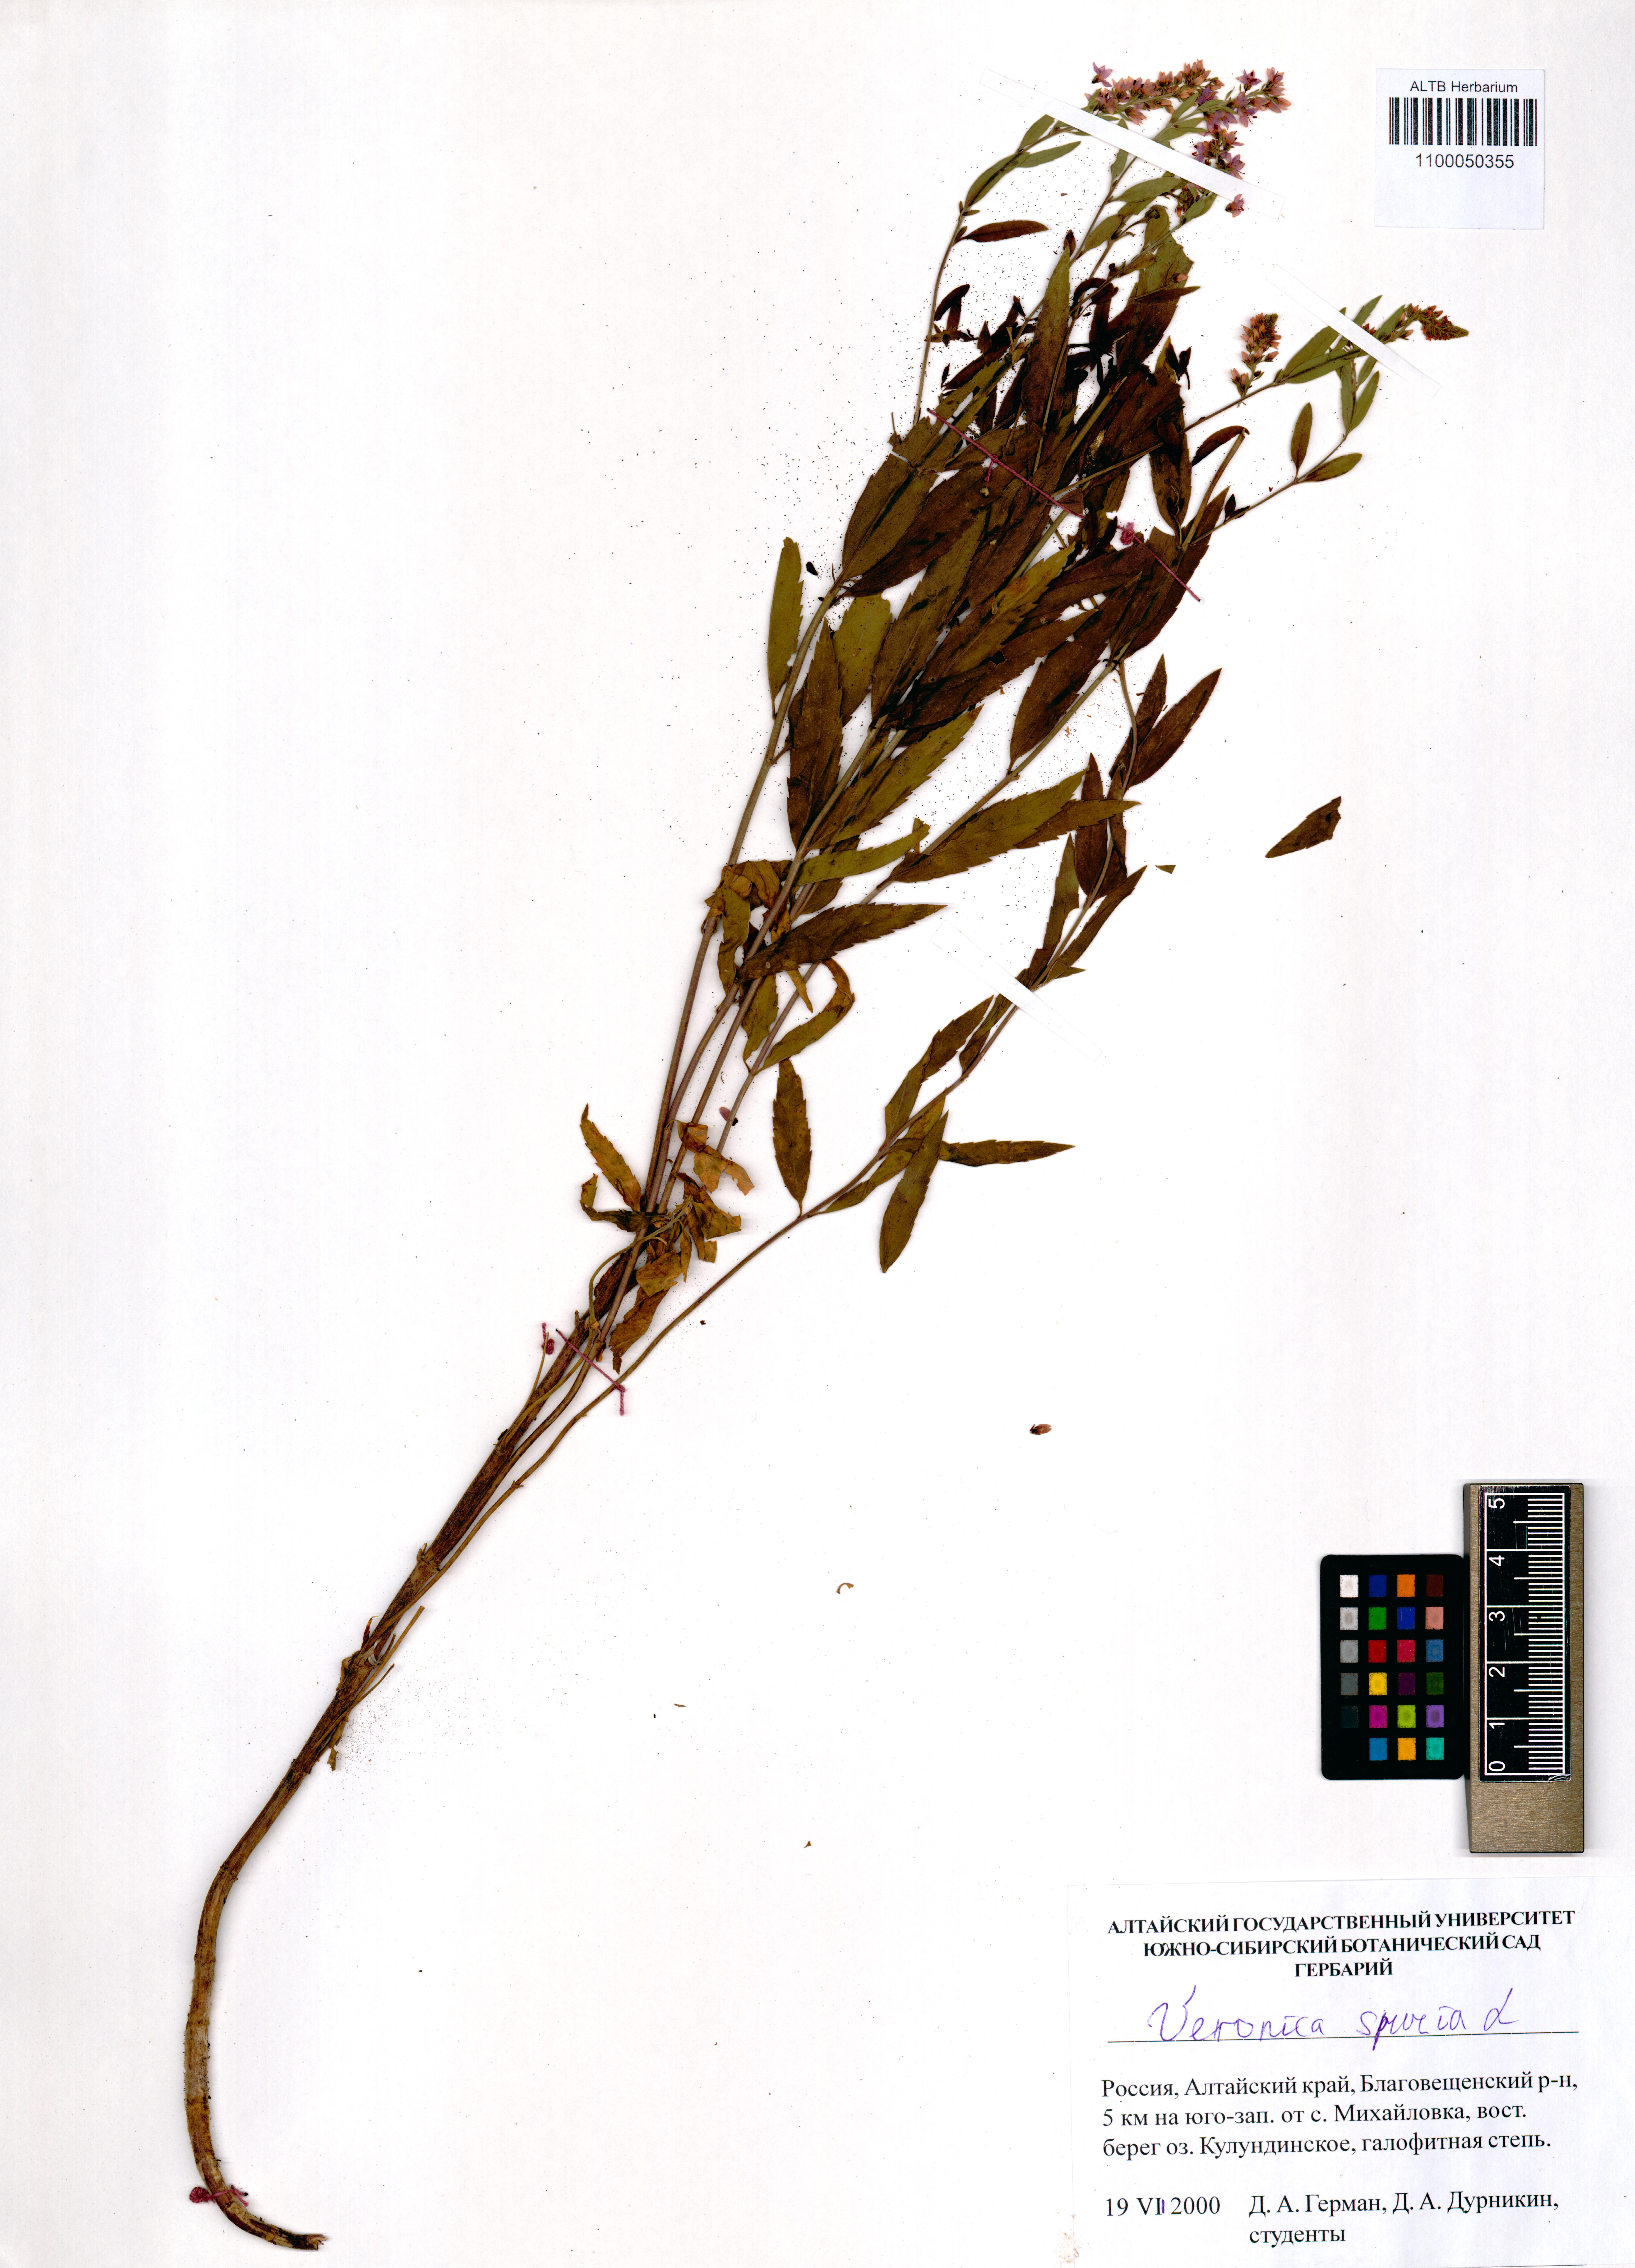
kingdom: Plantae
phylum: Tracheophyta
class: Magnoliopsida
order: Lamiales
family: Plantaginaceae
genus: Veronica
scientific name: Veronica spuria
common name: Bastard speedwell
